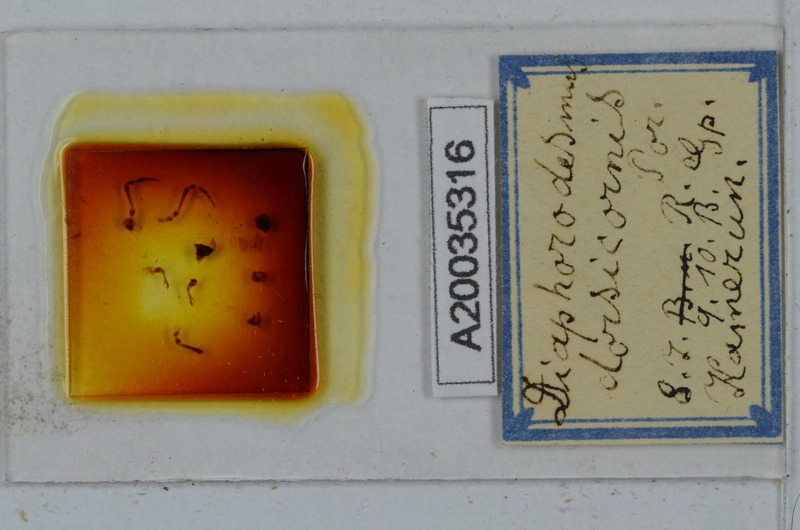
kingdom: Animalia
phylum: Arthropoda
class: Diplopoda
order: Polydesmida
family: Chelodesmidae
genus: Diaphorodesmus
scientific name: Diaphorodesmus dorsicornis
